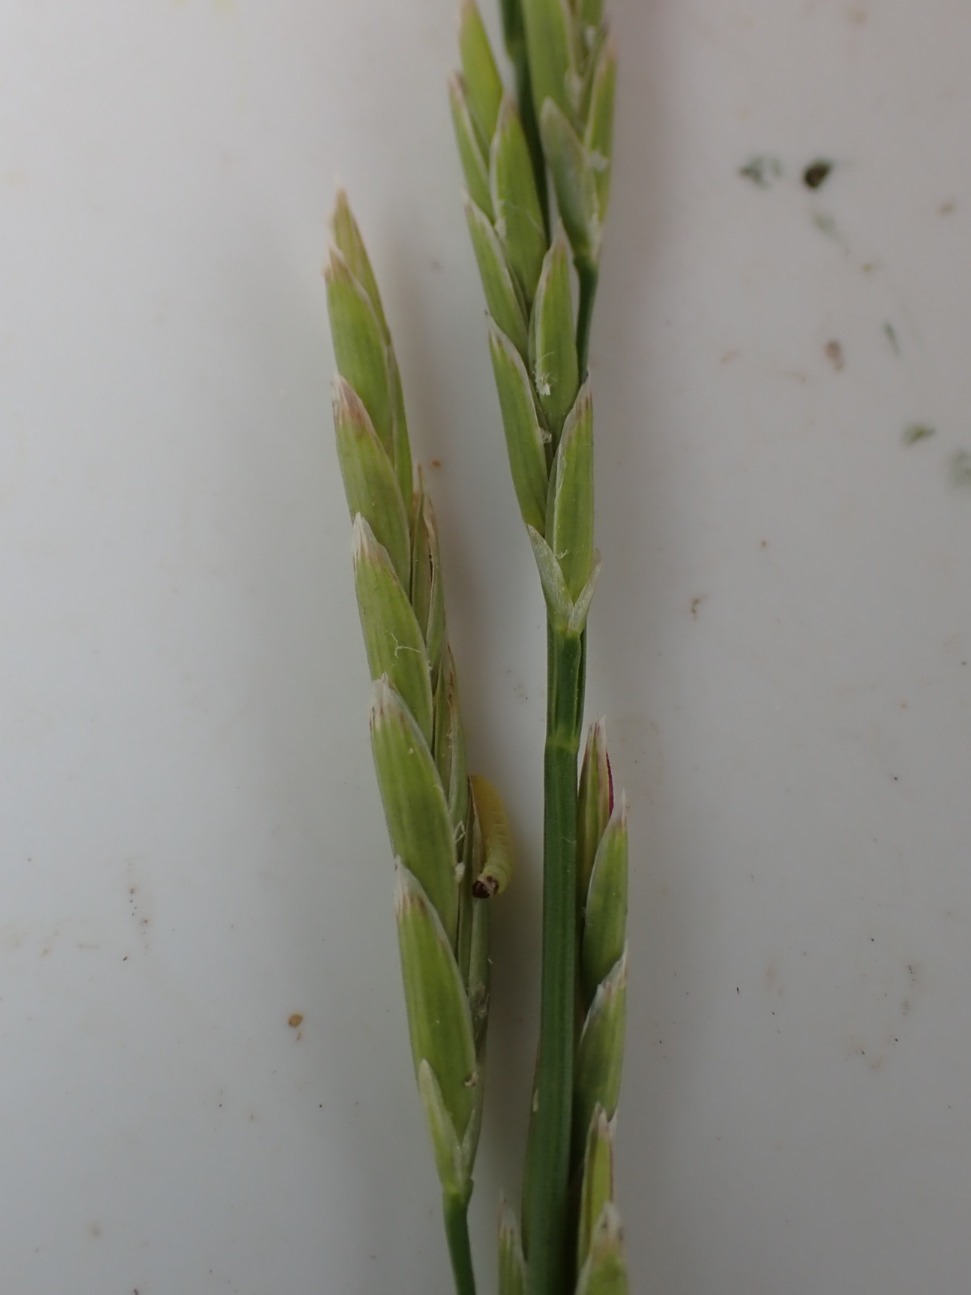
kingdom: Plantae
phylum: Tracheophyta
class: Liliopsida
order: Poales
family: Poaceae
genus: Glyceria
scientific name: Glyceria fluitans
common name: Manna-sødgræs
